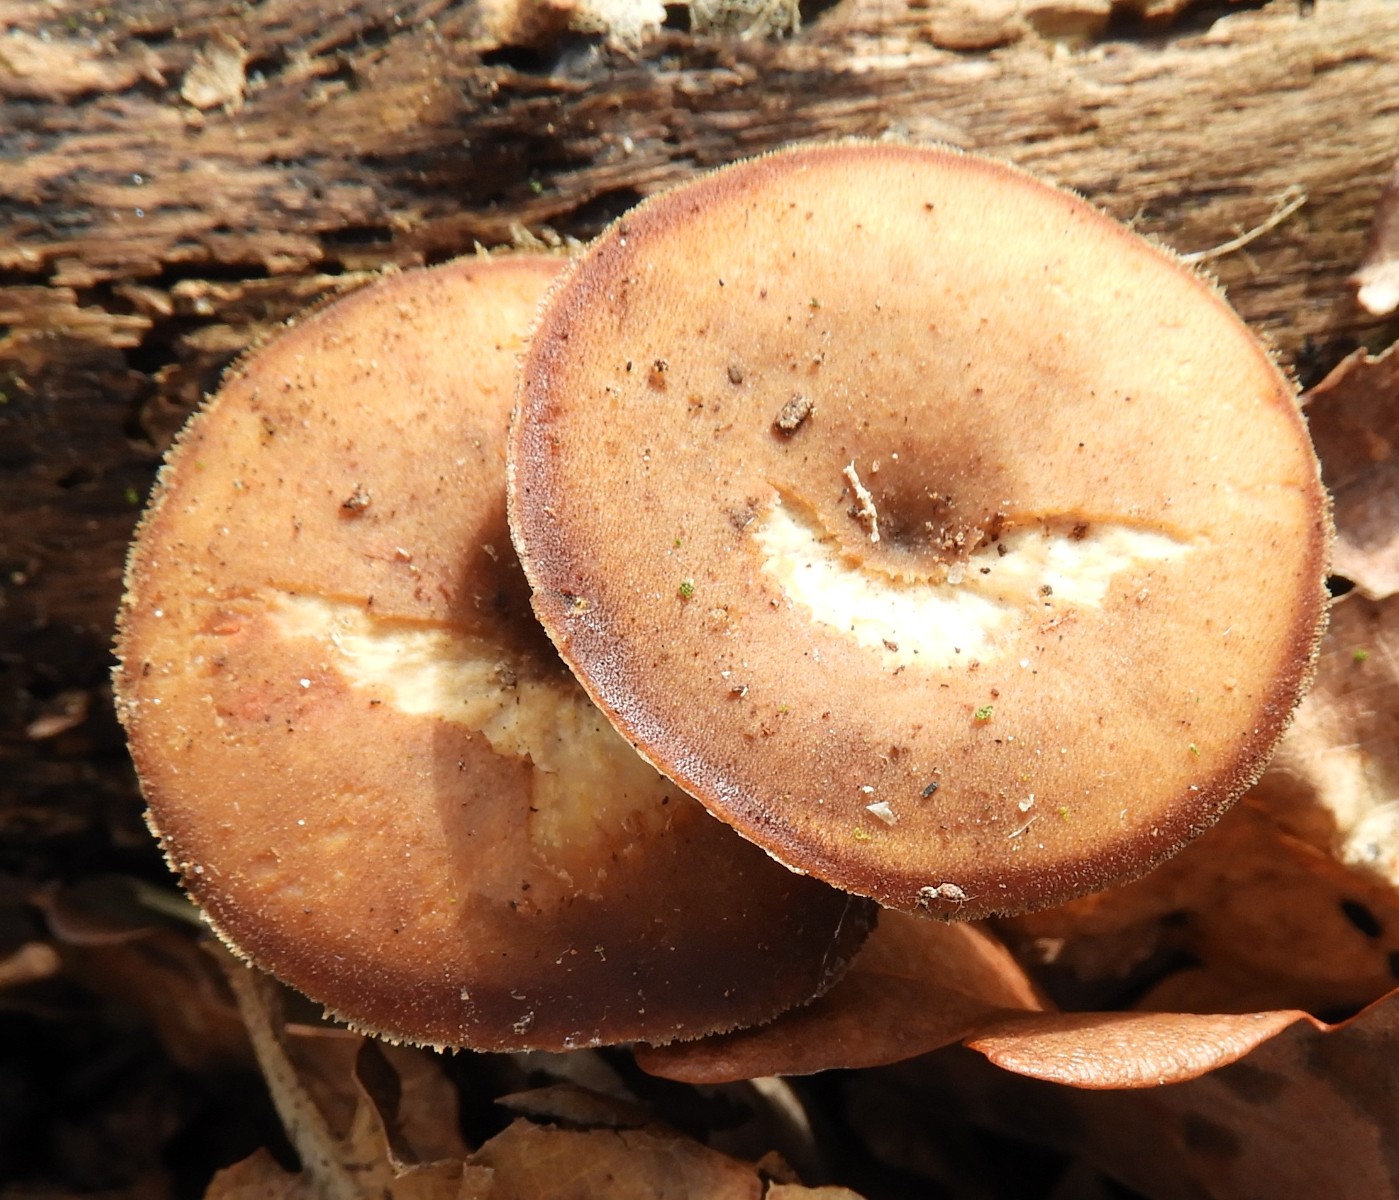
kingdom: Fungi
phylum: Basidiomycota
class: Agaricomycetes
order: Polyporales
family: Polyporaceae
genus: Lentinus
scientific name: Lentinus brumalis
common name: vinter-stilkporesvamp
